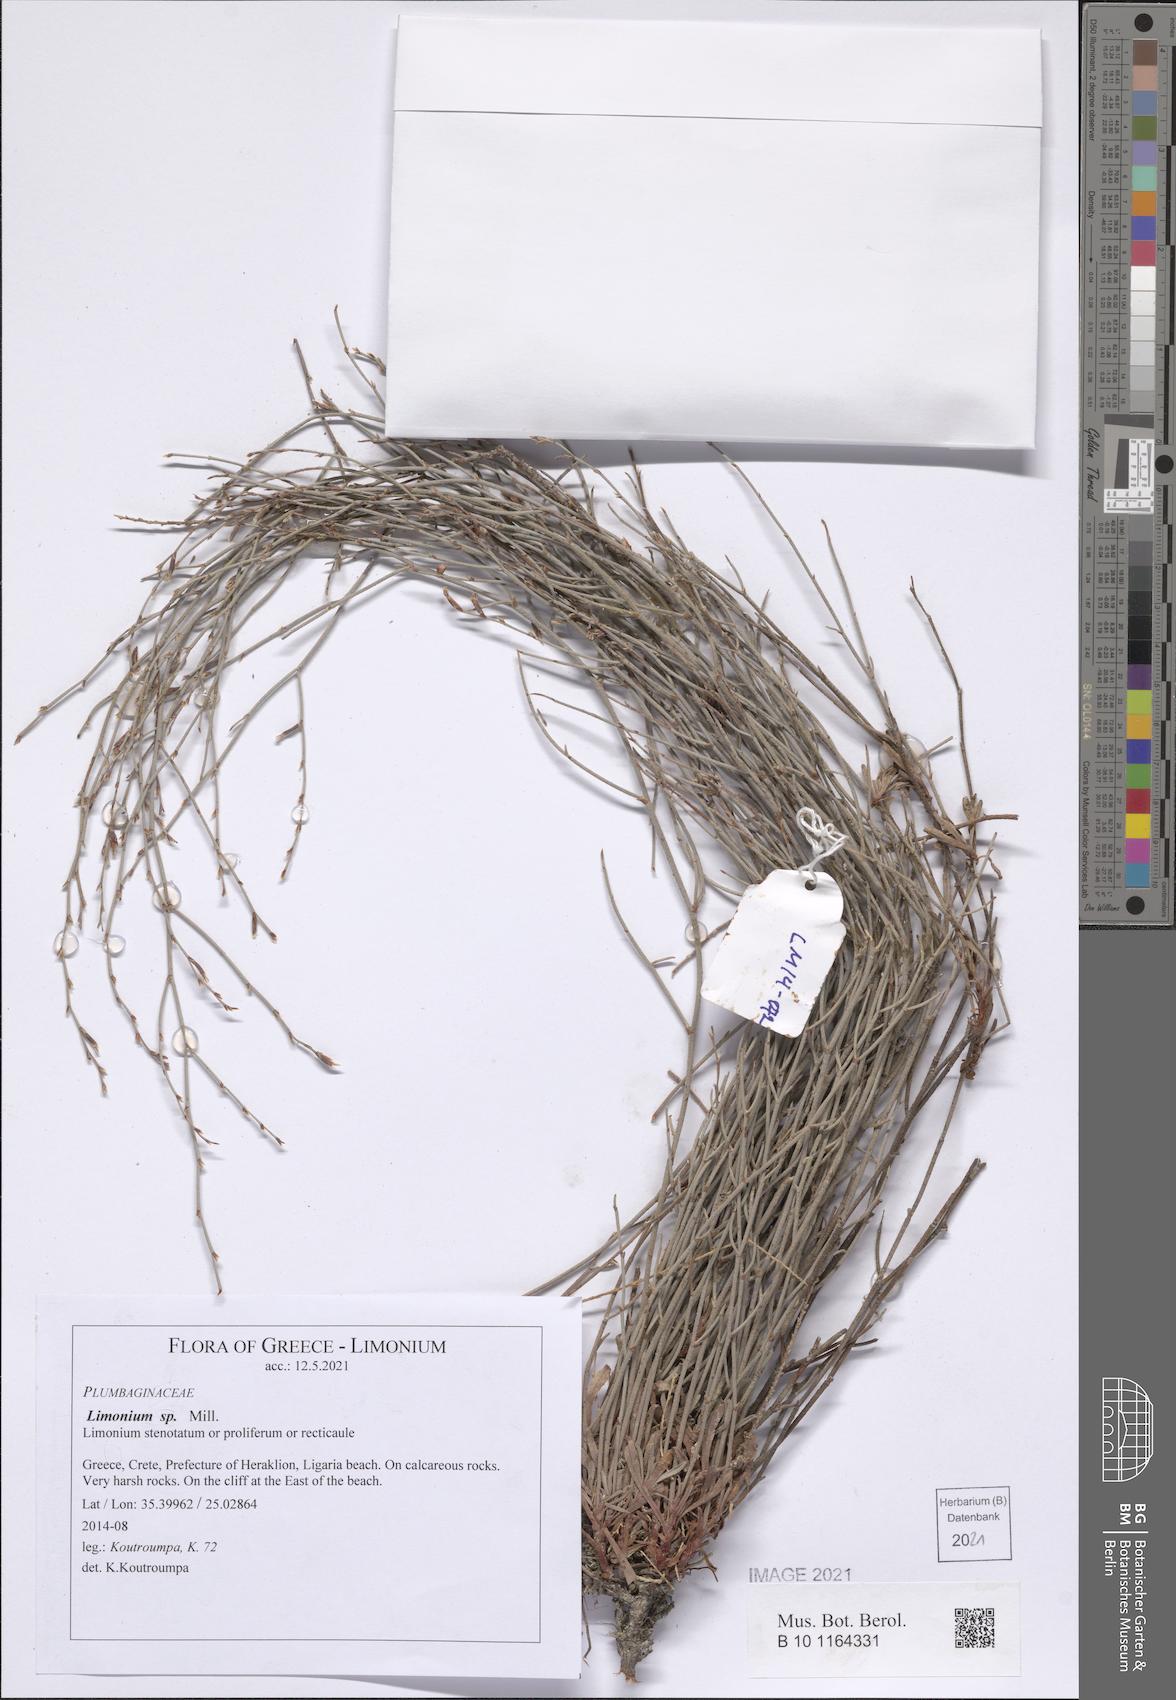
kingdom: Plantae
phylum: Tracheophyta
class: Magnoliopsida
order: Caryophyllales
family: Plumbaginaceae
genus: Limonium
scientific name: Limonium
